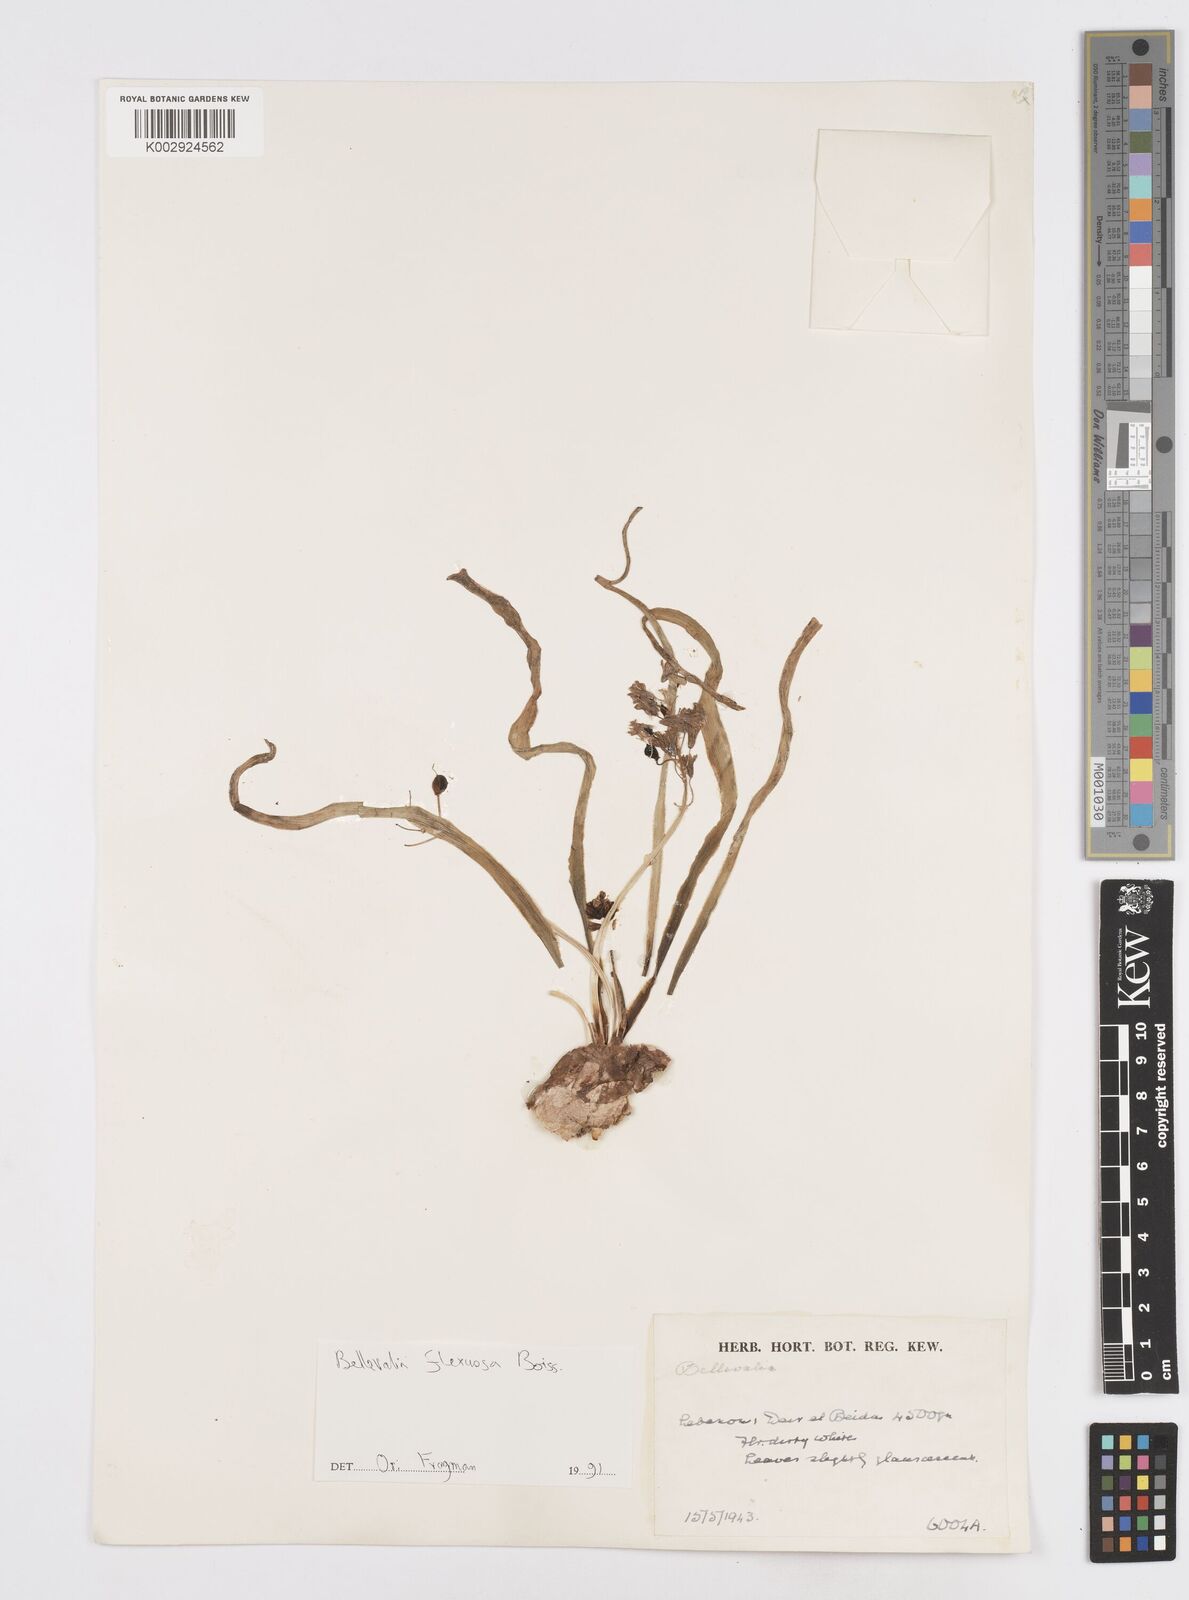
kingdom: Plantae
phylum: Tracheophyta
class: Liliopsida
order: Asparagales
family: Asparagaceae
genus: Bellevalia
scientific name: Bellevalia flexuosa
